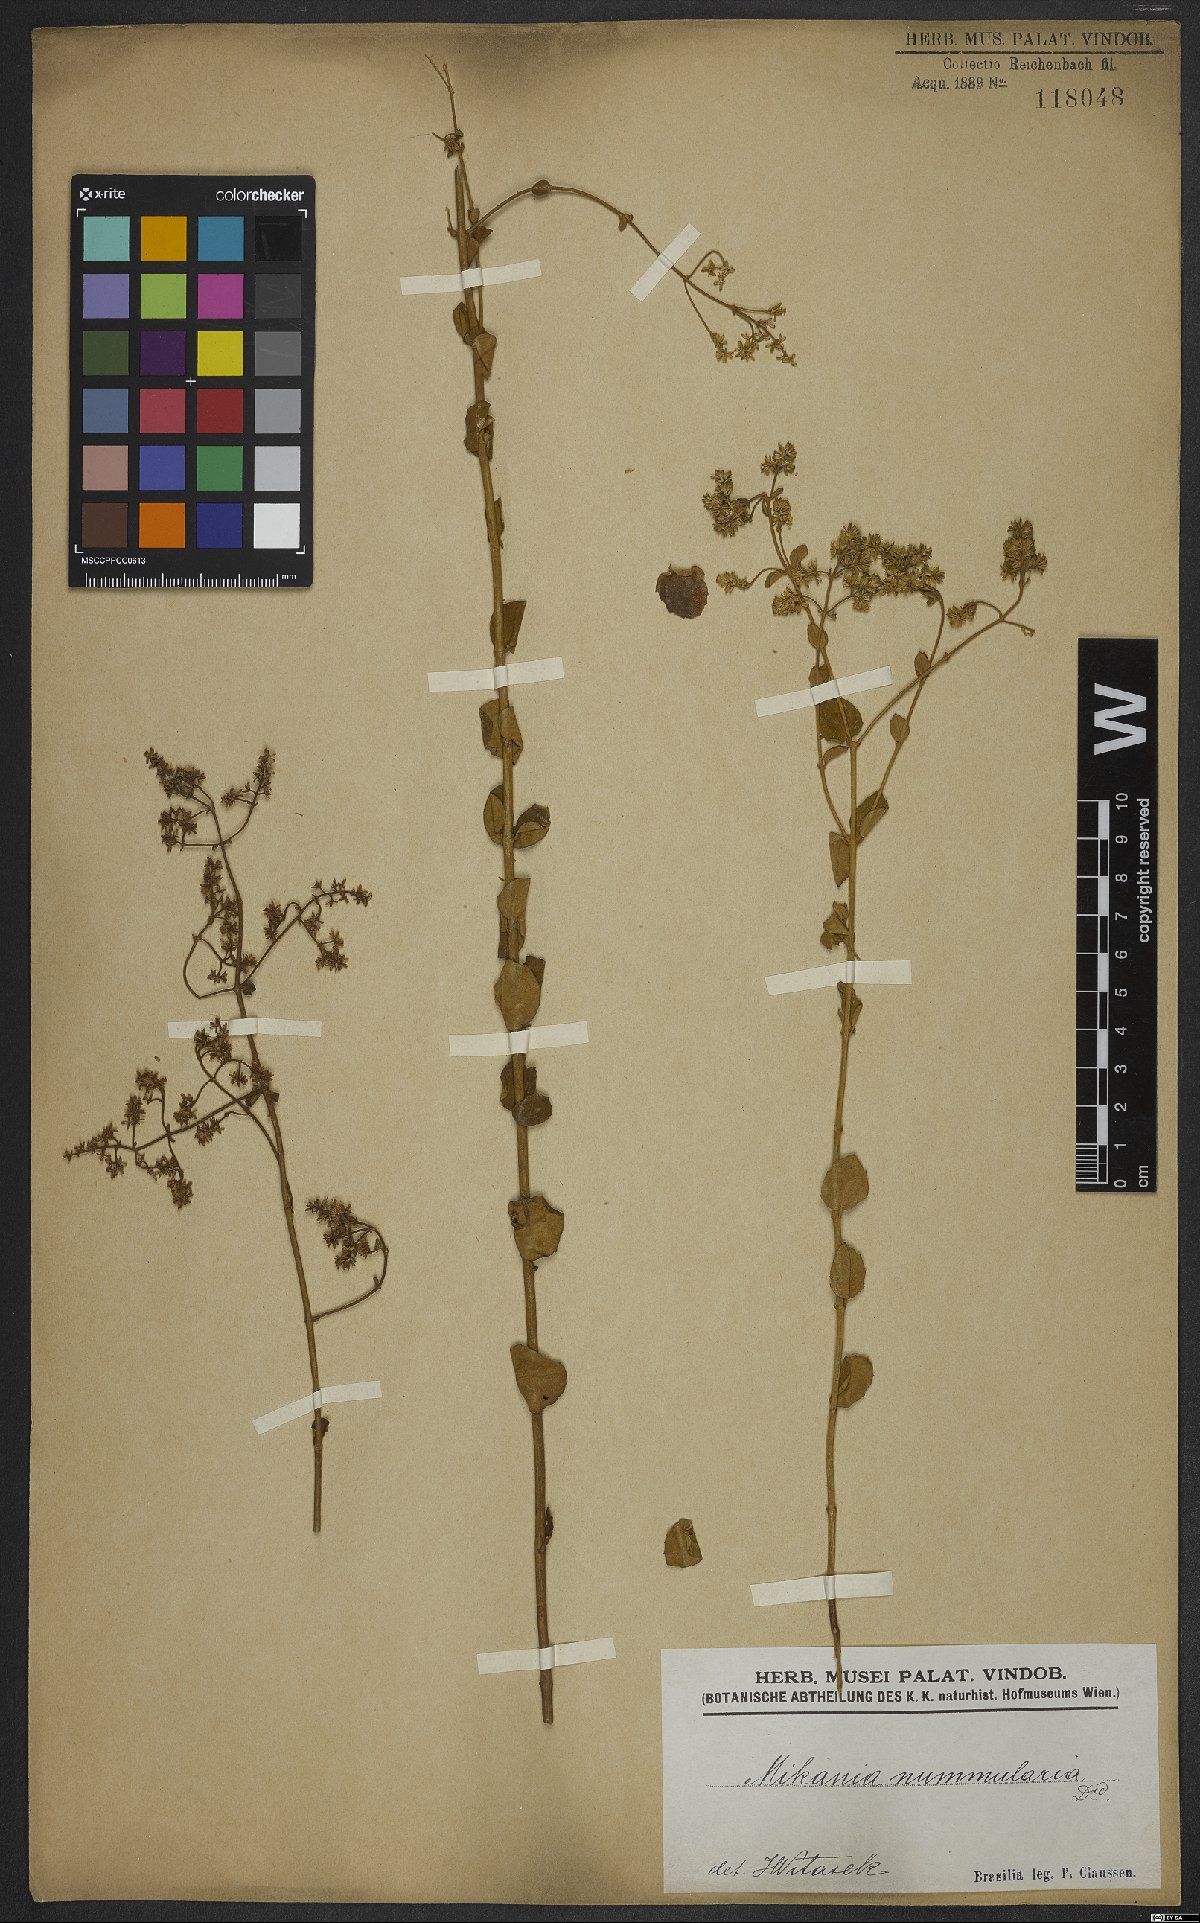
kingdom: Plantae
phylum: Tracheophyta
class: Magnoliopsida
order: Asterales
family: Asteraceae
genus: Mikania
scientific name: Mikania nummularia
